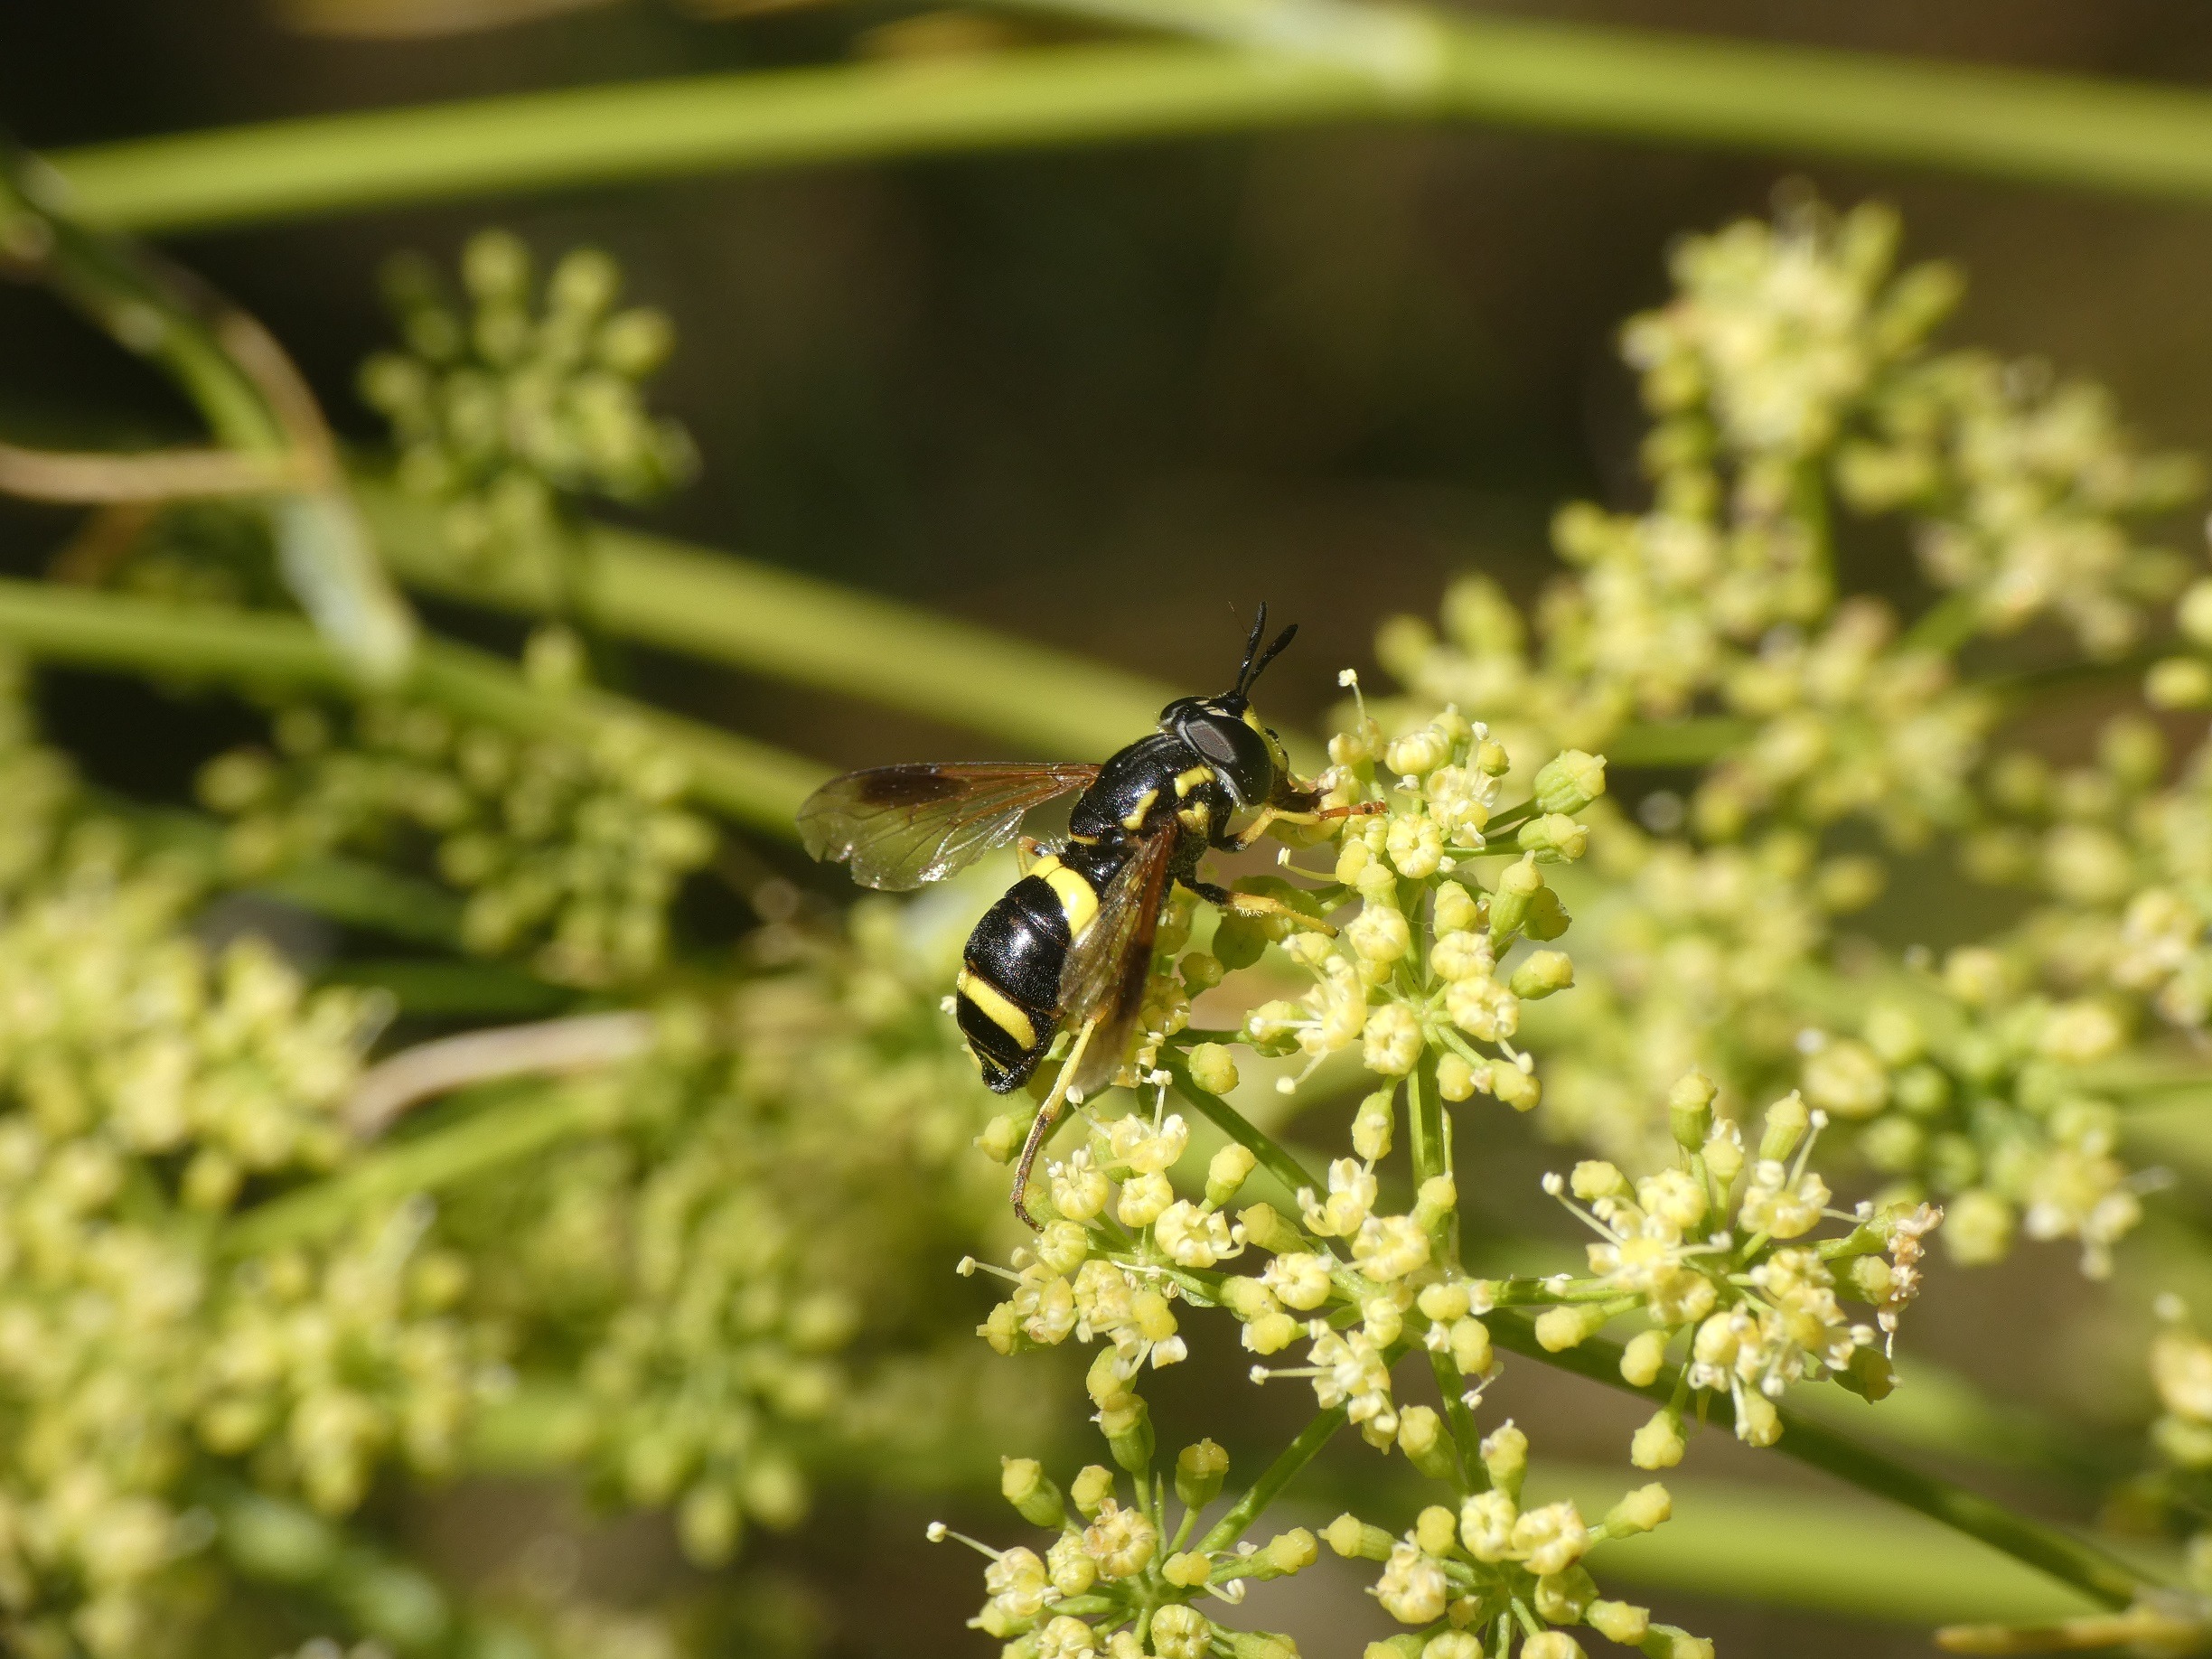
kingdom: Animalia
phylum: Arthropoda
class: Insecta
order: Diptera
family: Syrphidae
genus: Chrysotoxum
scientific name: Chrysotoxum bicincta
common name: Tobåndet hvepsesvirreflue
